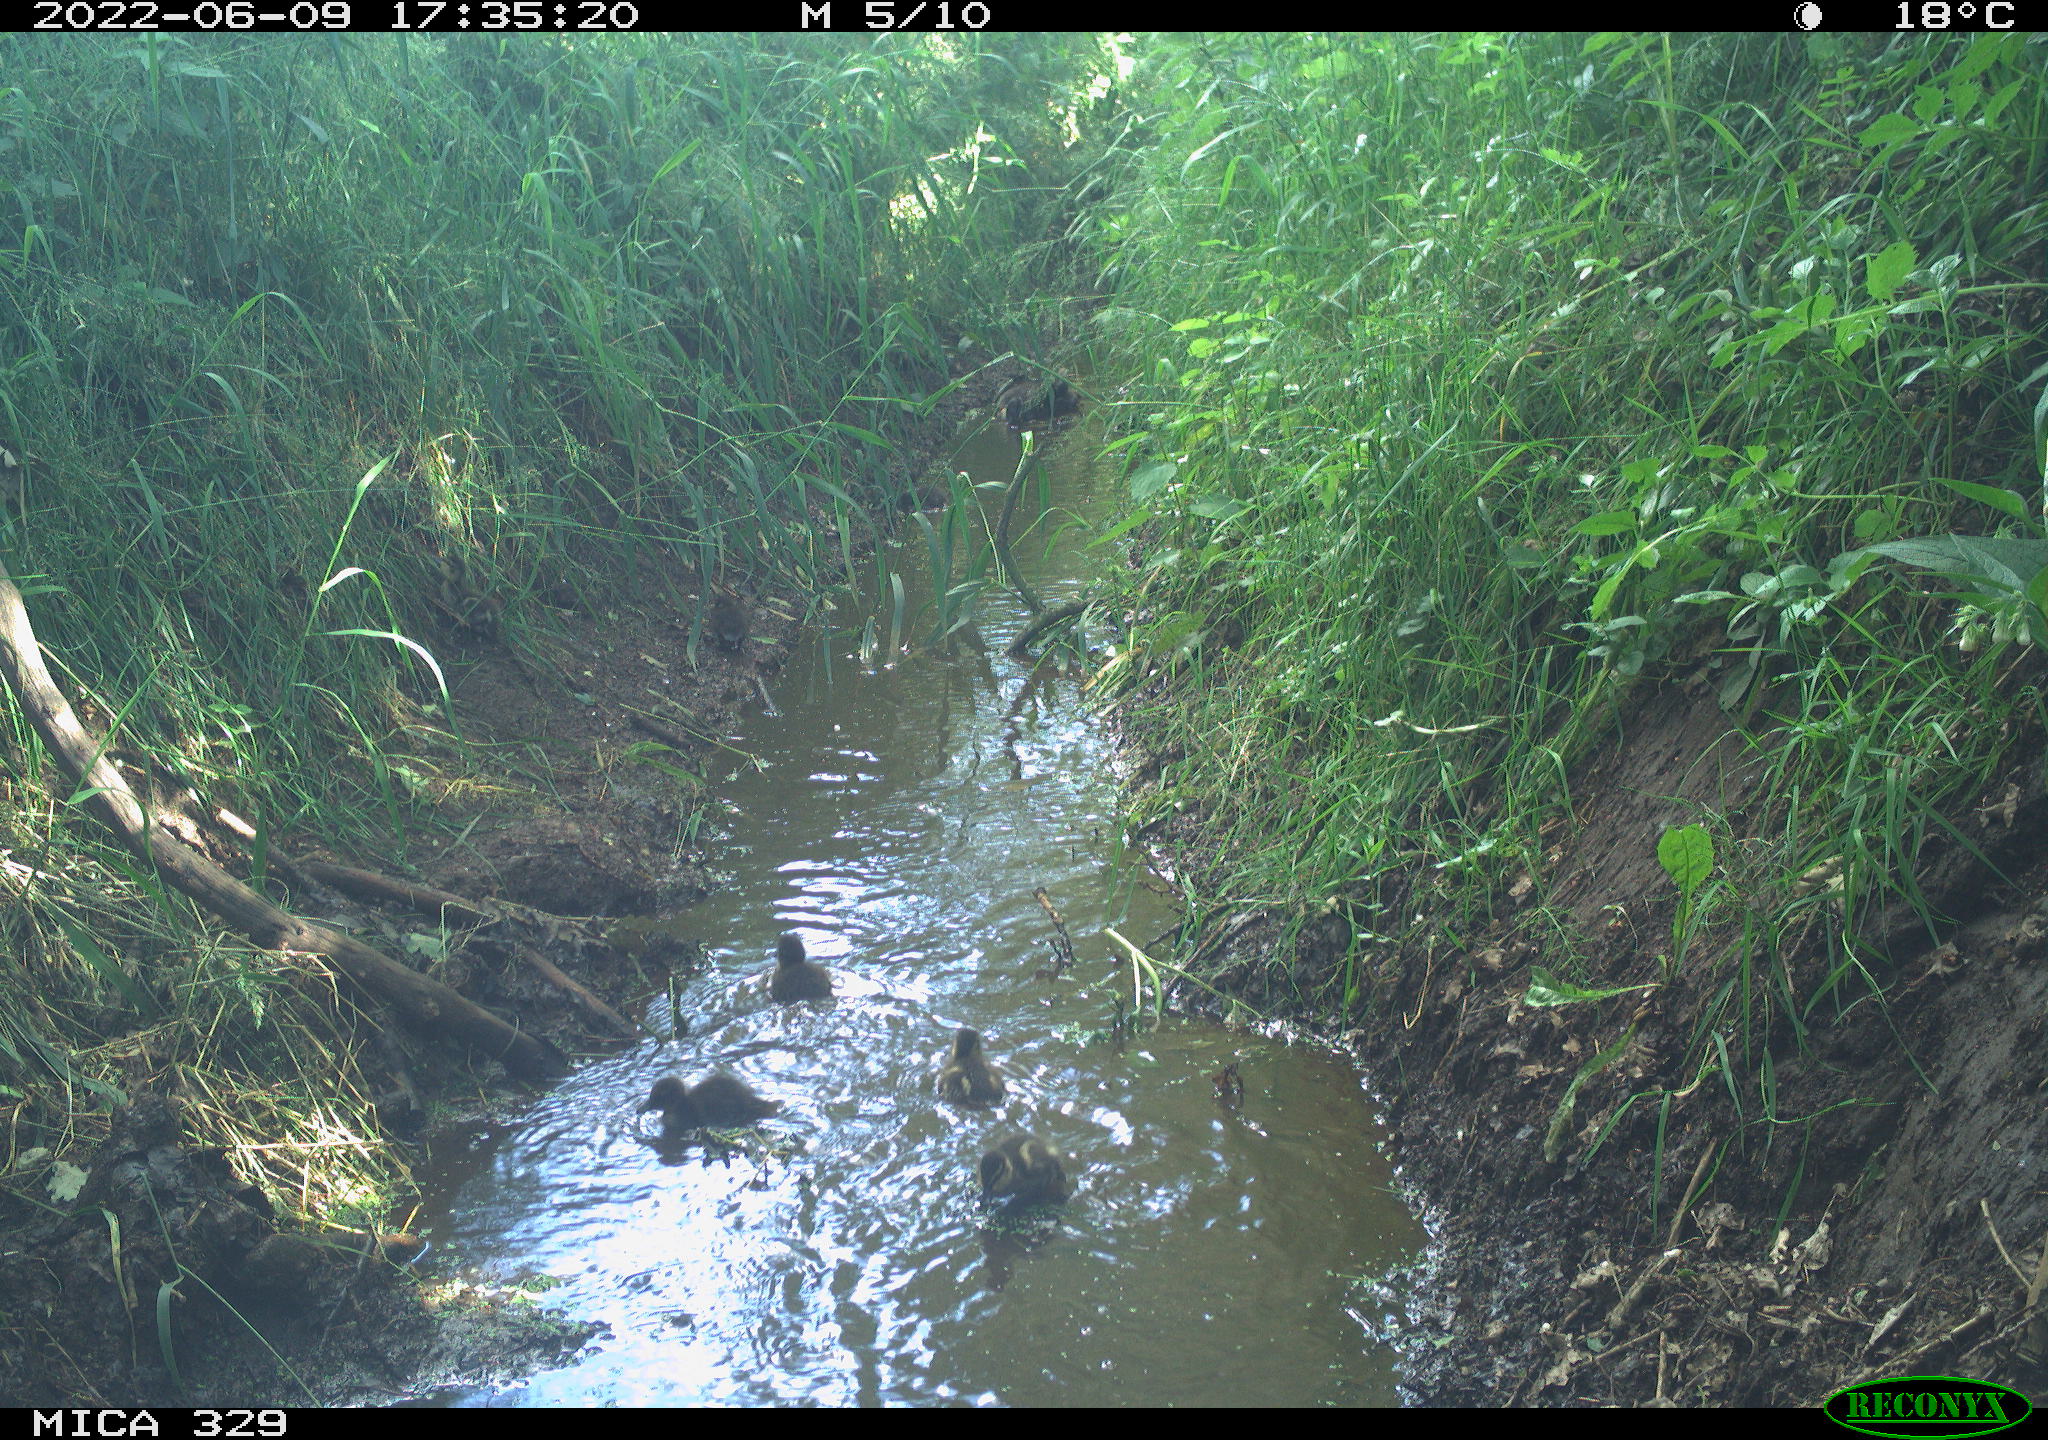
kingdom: Animalia
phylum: Chordata
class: Aves
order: Anseriformes
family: Anatidae
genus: Anas
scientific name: Anas
